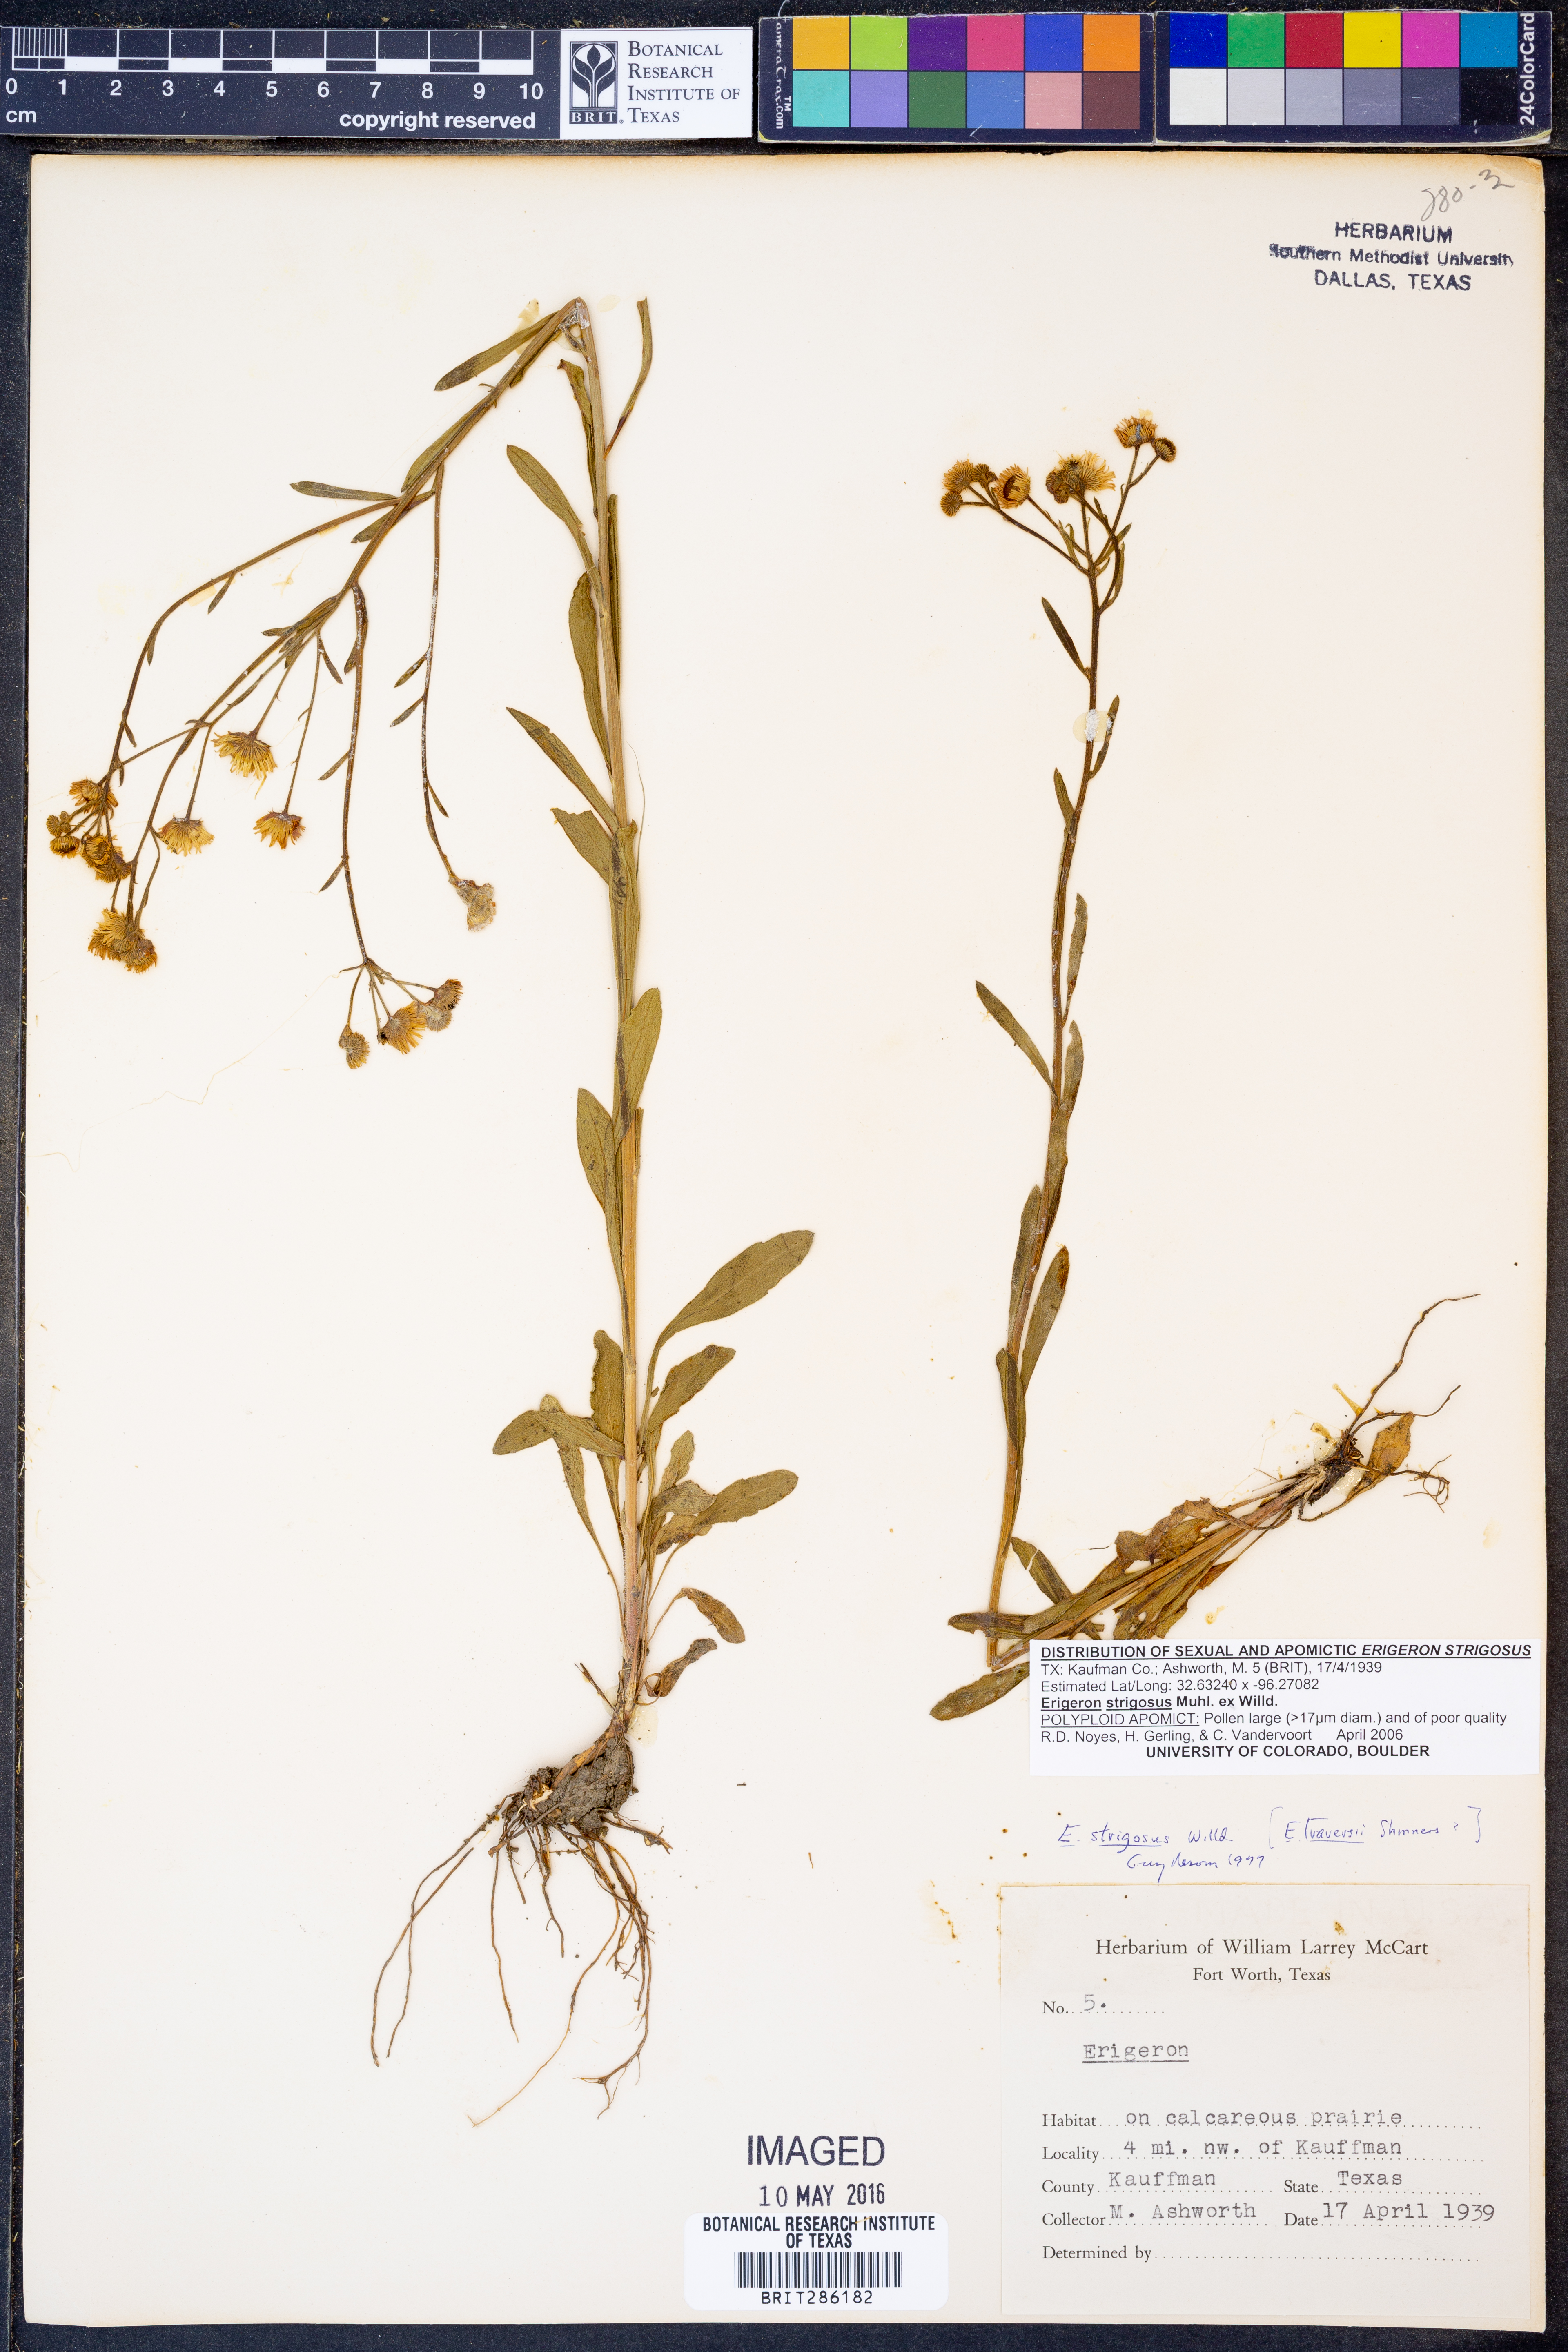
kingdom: Plantae
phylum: Tracheophyta
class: Magnoliopsida
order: Asterales
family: Asteraceae
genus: Erigeron
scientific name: Erigeron strigosus
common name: Common eastern fleabane
